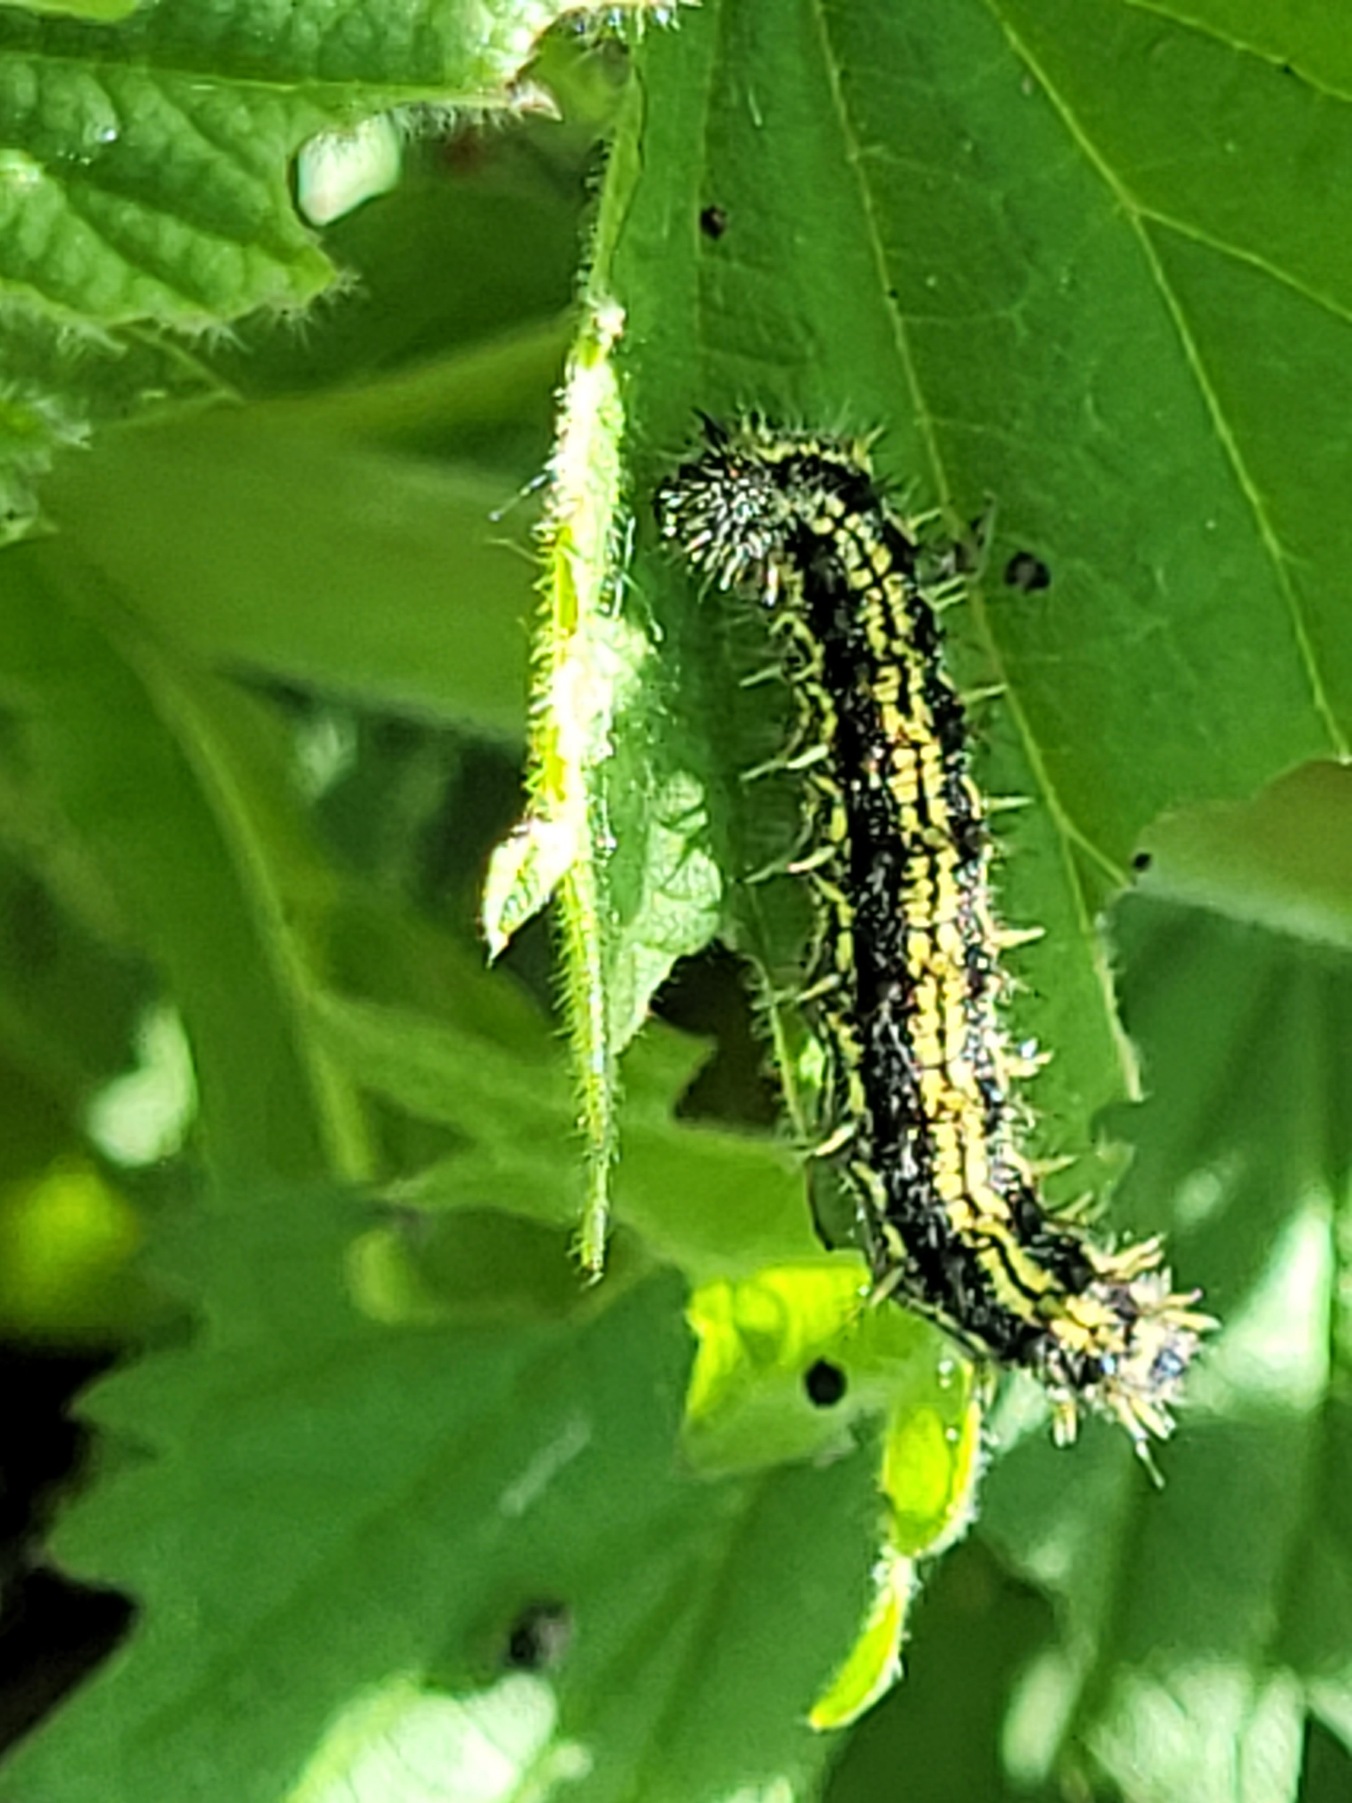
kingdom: Animalia
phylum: Arthropoda
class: Insecta
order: Lepidoptera
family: Nymphalidae
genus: Aglais
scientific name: Aglais urticae
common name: Nældens takvinge
